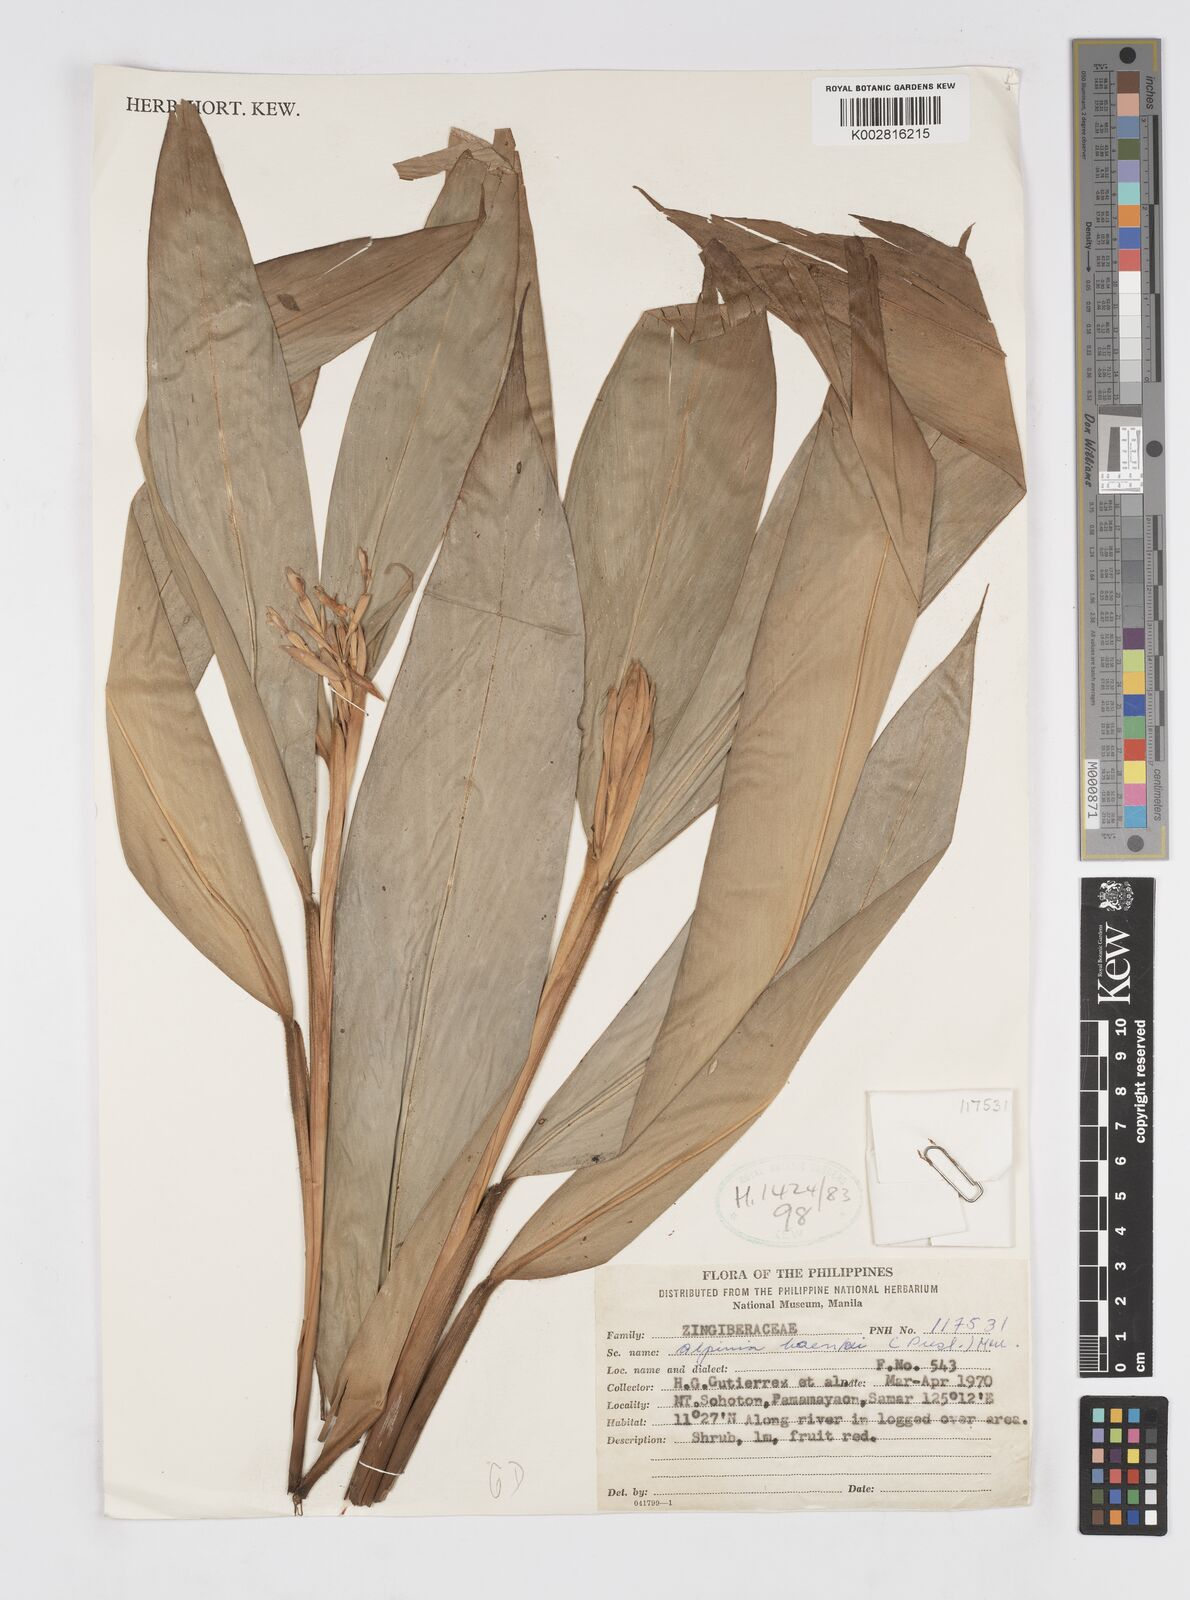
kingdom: Plantae
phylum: Tracheophyta
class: Liliopsida
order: Zingiberales
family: Zingiberaceae
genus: Alpinia
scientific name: Alpinia haenkei
